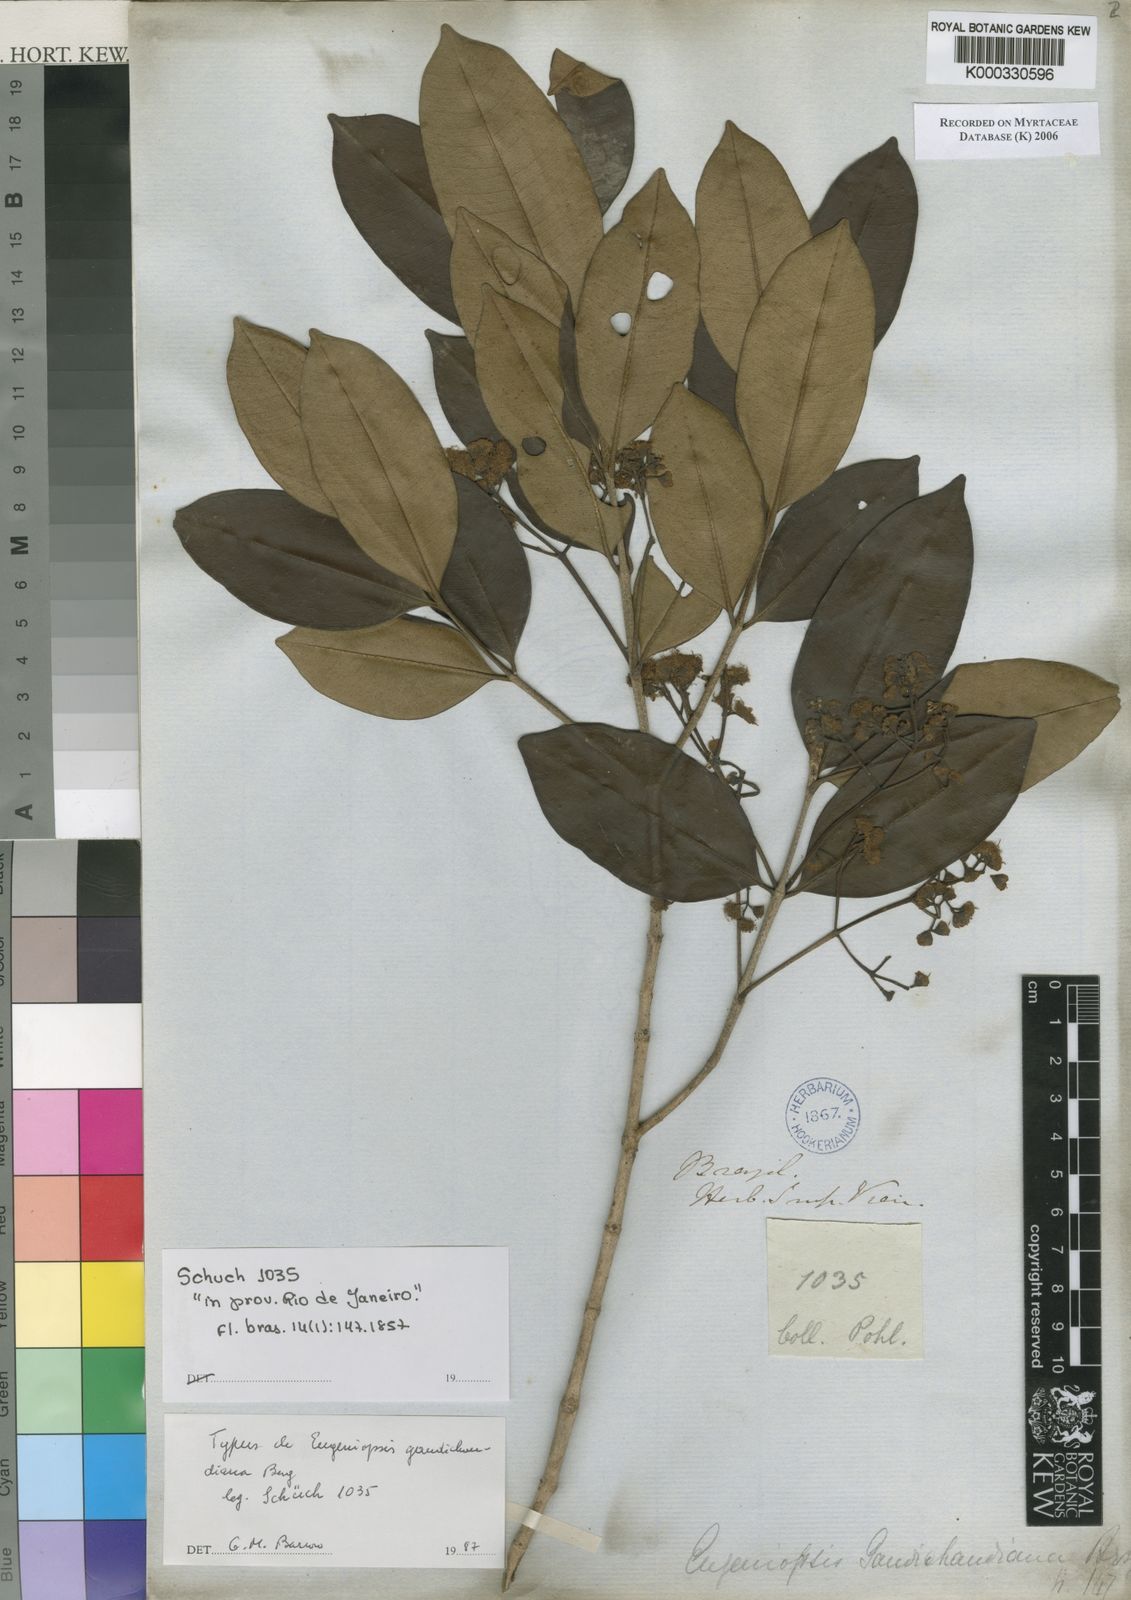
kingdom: Plantae
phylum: Tracheophyta
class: Magnoliopsida
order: Myrtales
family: Myrtaceae
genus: Marlierea
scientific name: Marlierea gaudichaudiana
